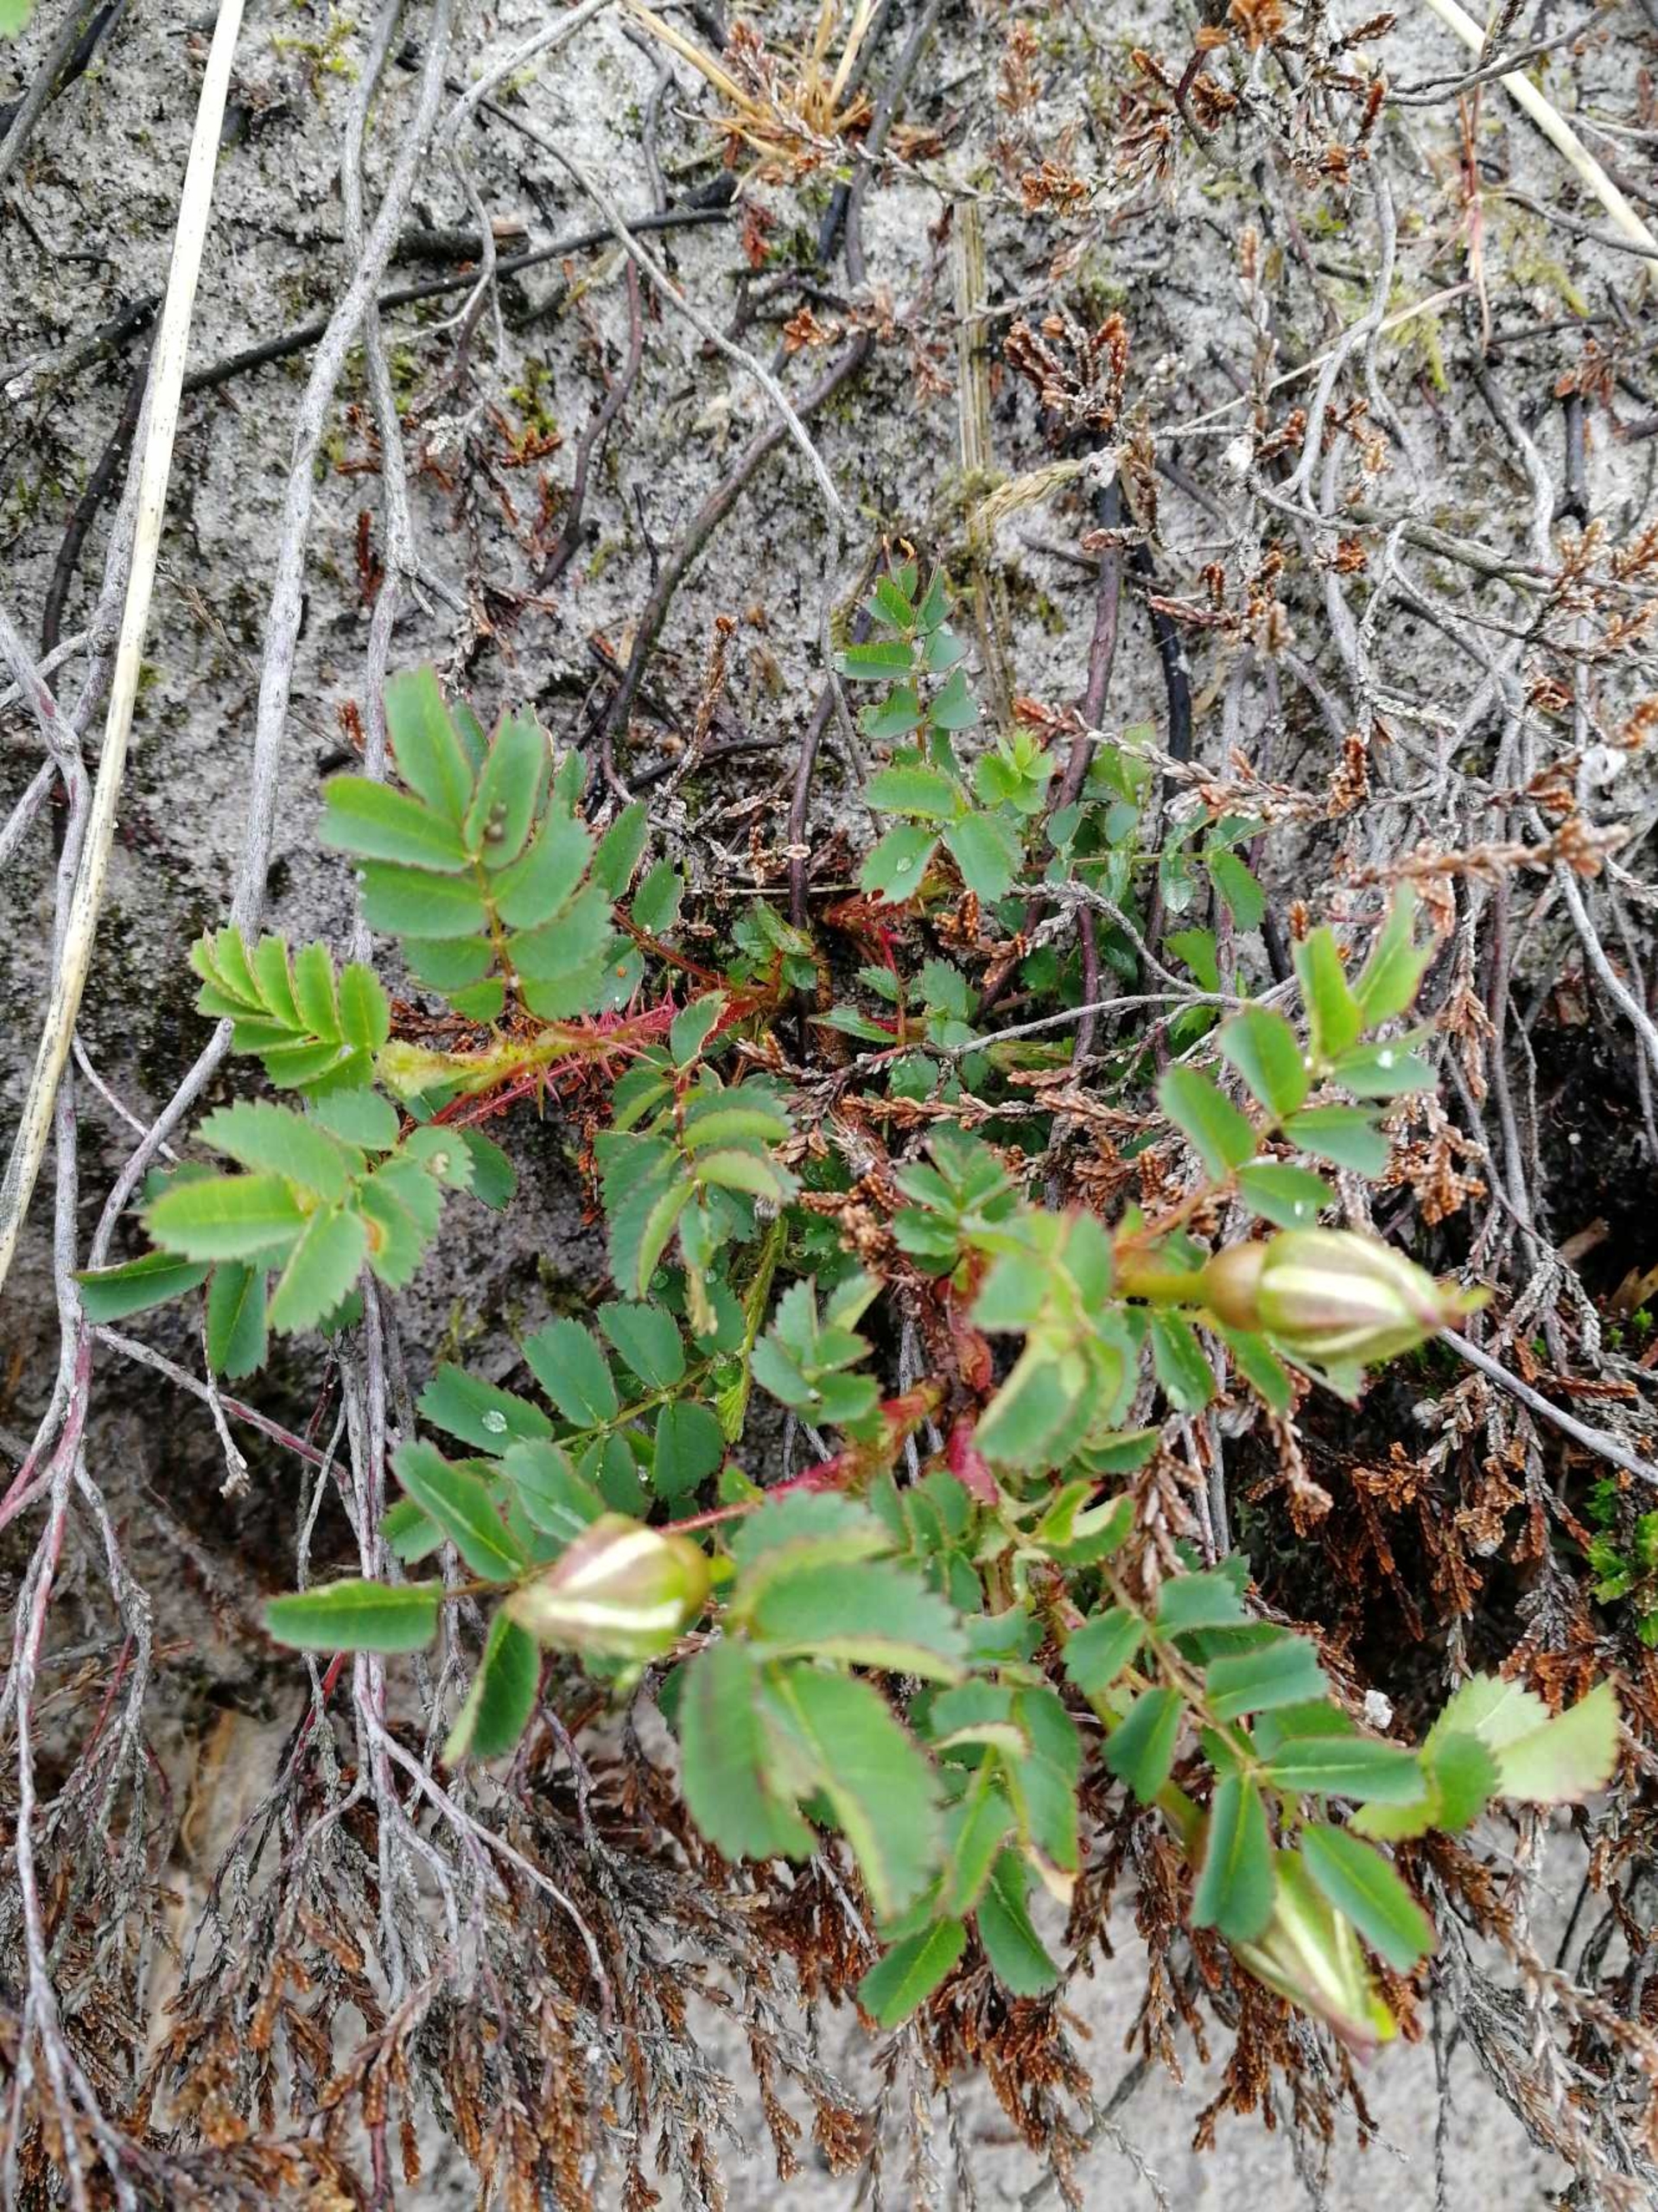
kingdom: Plantae
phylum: Tracheophyta
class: Magnoliopsida
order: Rosales
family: Rosaceae
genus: Rosa
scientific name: Rosa spinosissima
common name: Klit-rose
